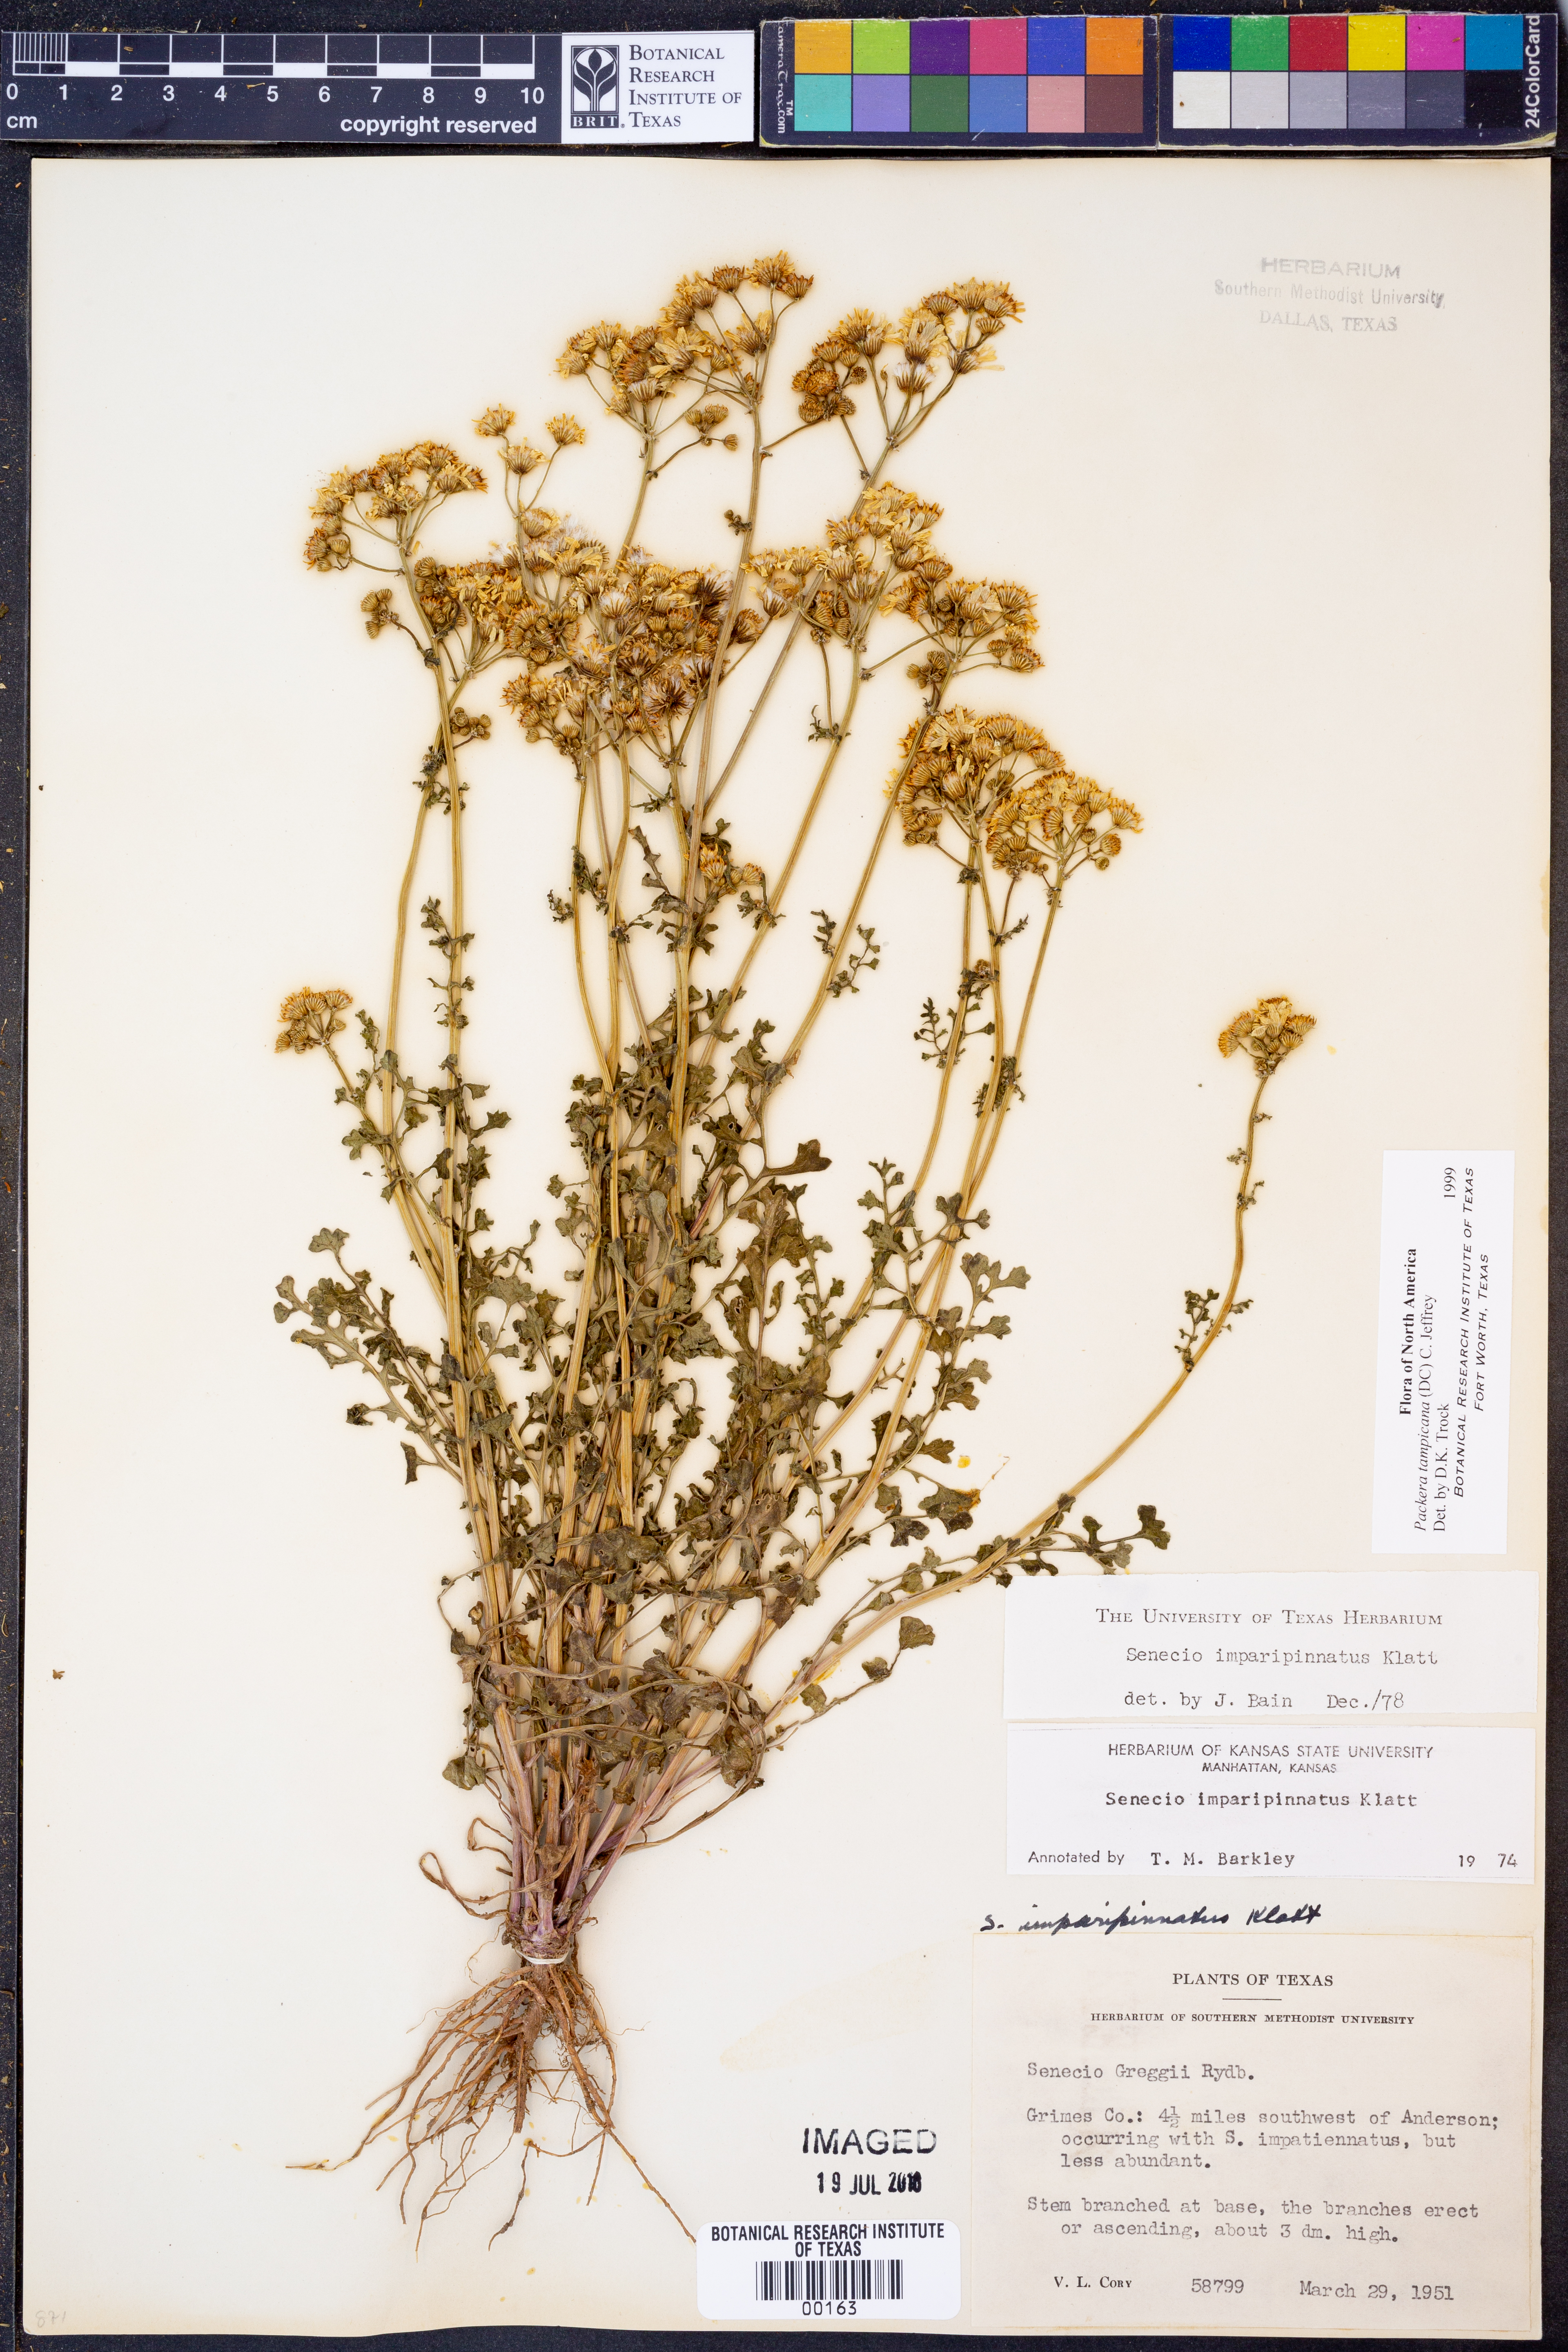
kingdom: Plantae
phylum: Tracheophyta
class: Magnoliopsida
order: Asterales
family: Asteraceae
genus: Packera
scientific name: Packera tampicana
